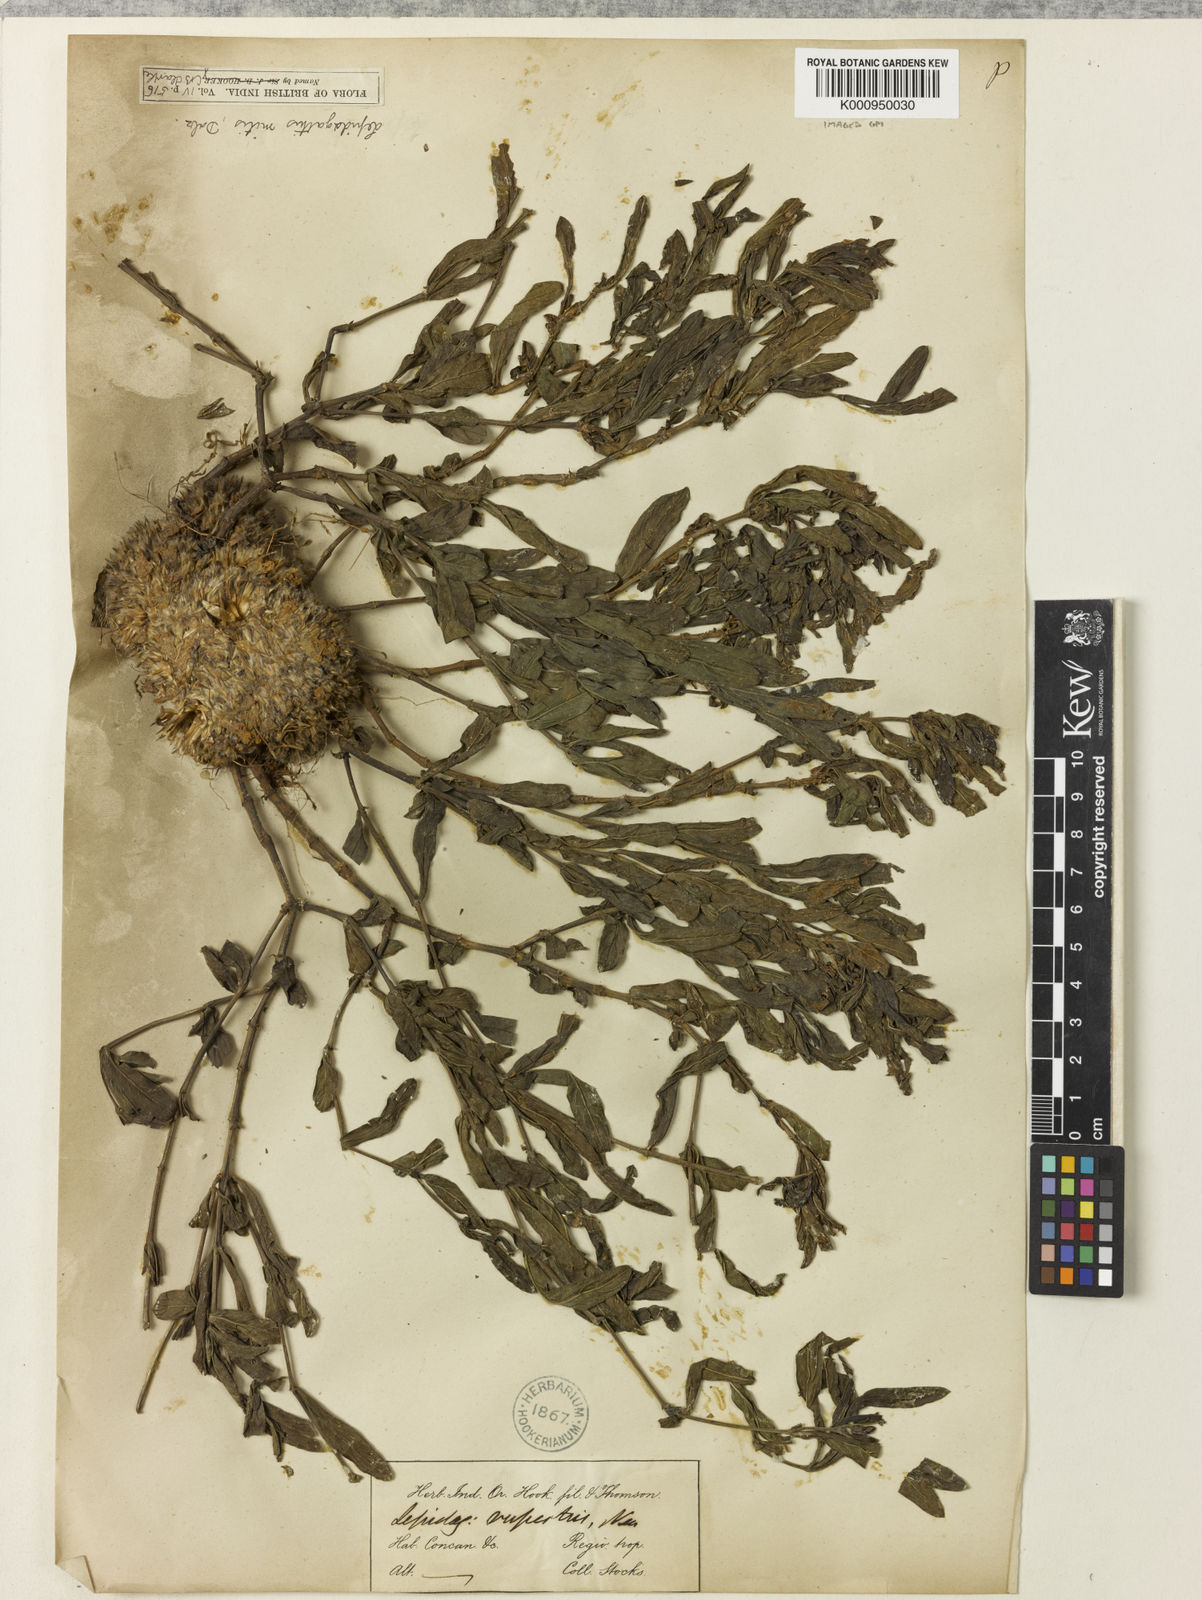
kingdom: Plantae
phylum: Tracheophyta
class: Magnoliopsida
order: Lamiales
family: Acanthaceae
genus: Lepidagathis
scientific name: Lepidagathis mitis
